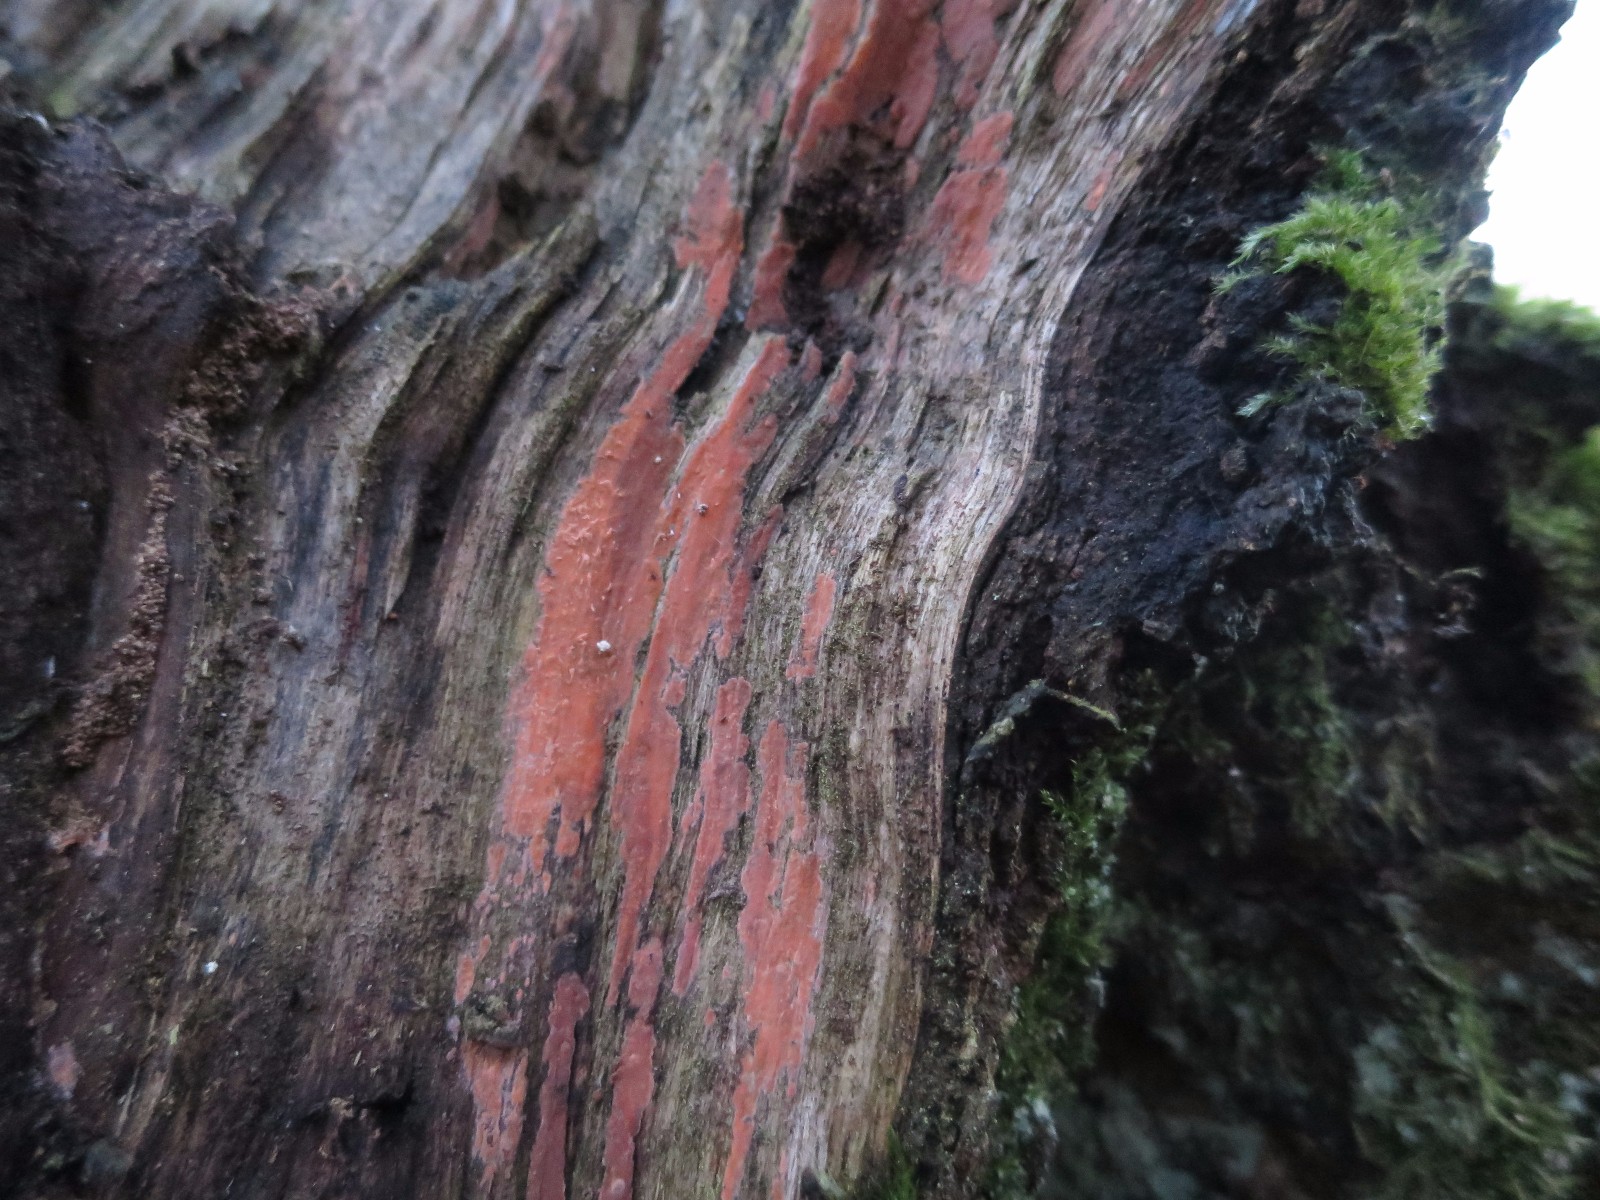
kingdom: Fungi
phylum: Basidiomycota
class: Agaricomycetes
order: Russulales
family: Peniophoraceae
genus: Peniophora
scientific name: Peniophora incarnata
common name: laksefarvet voksskind
